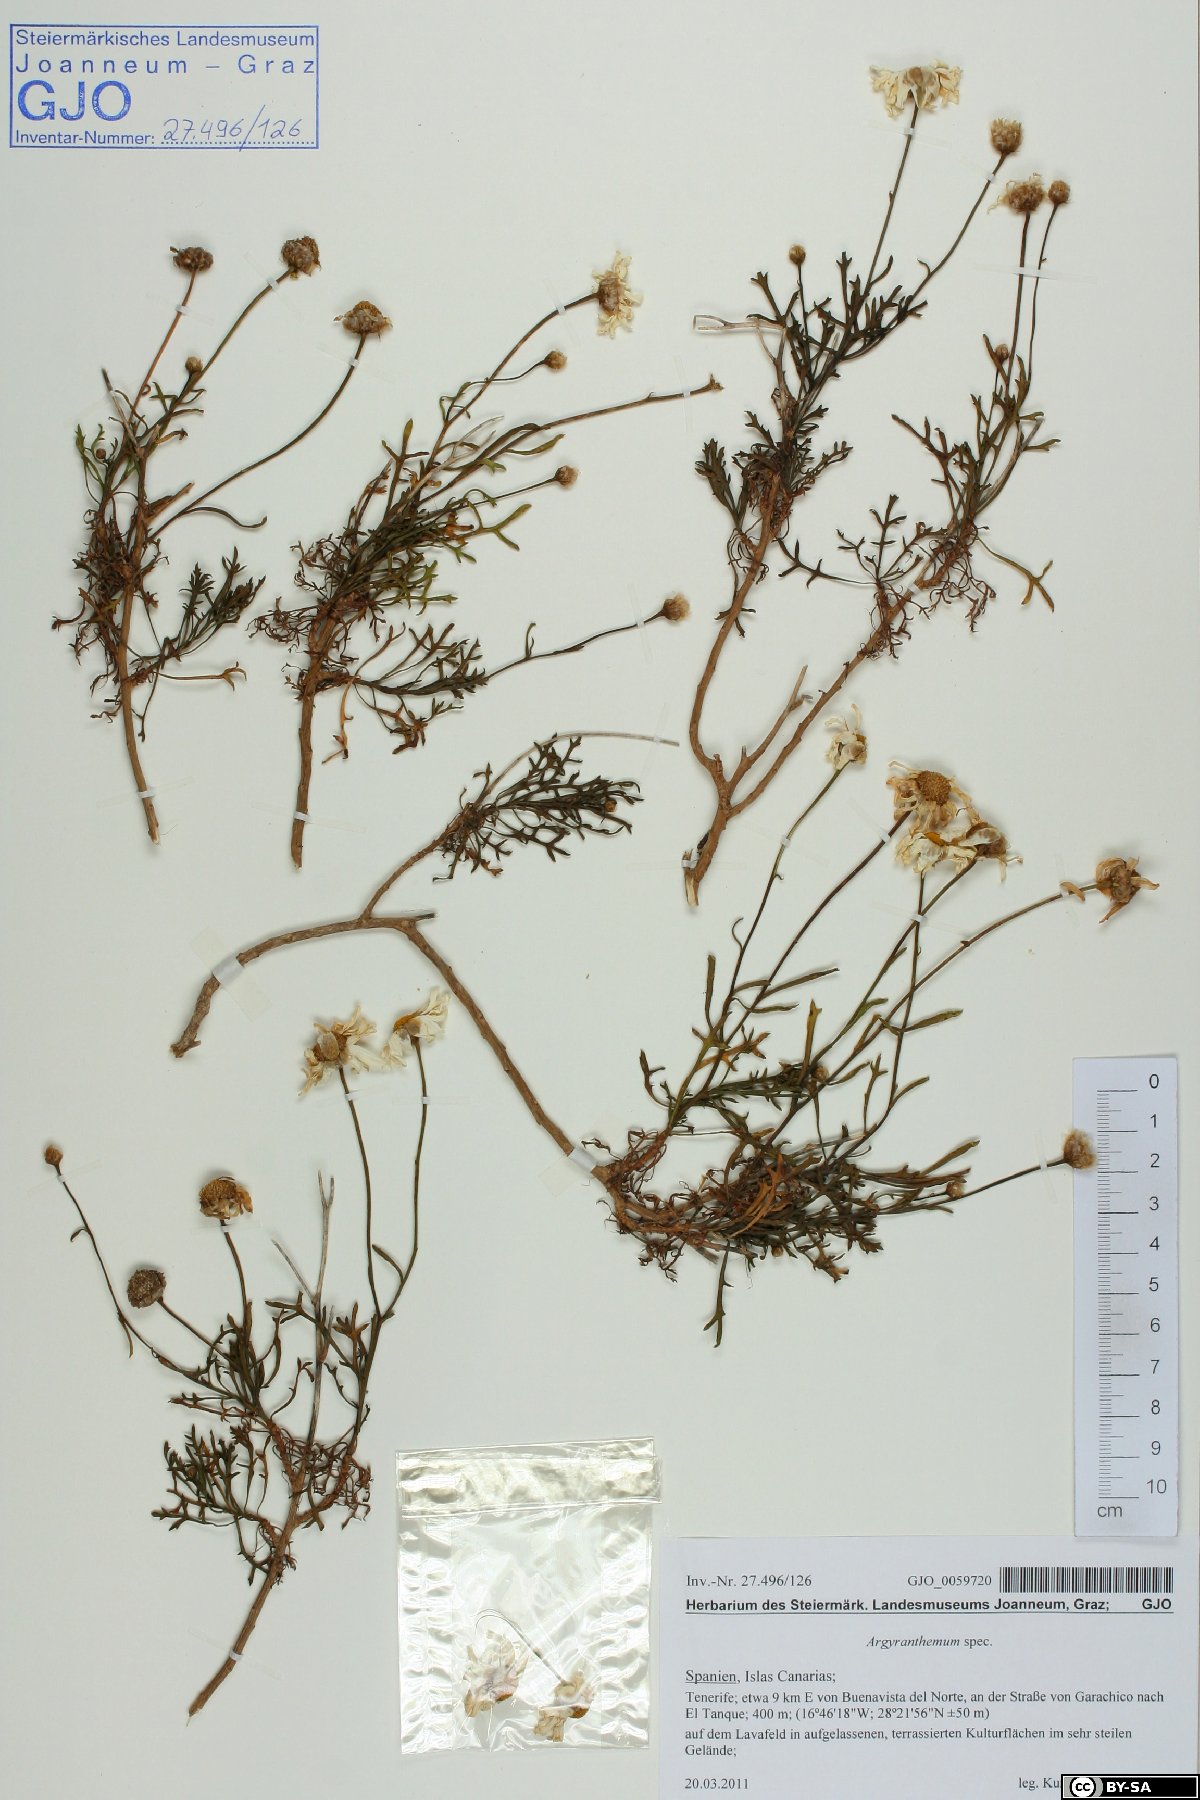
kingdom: Plantae
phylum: Tracheophyta
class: Magnoliopsida
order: Asterales
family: Asteraceae
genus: Argyranthemum
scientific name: Argyranthemum
